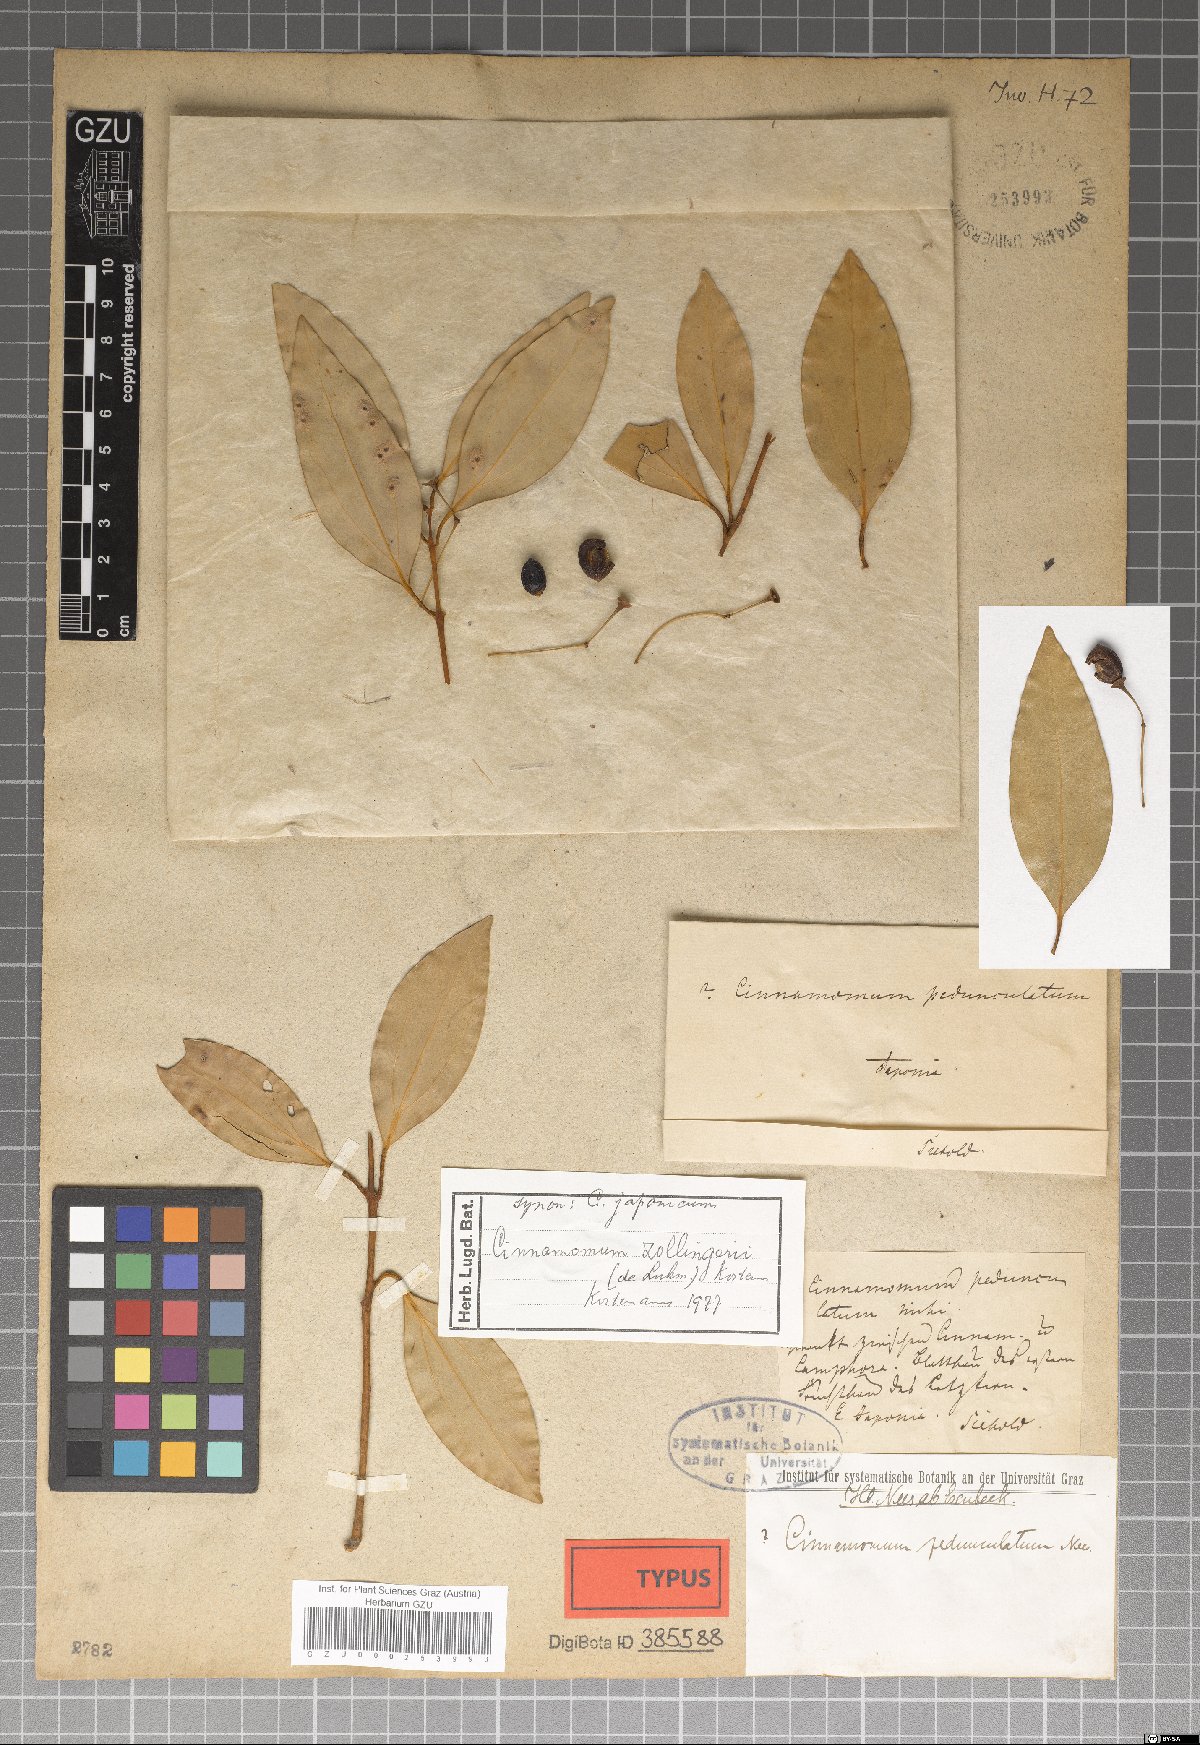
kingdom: Plantae
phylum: Tracheophyta
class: Magnoliopsida
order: Laurales
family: Lauraceae
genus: Cinnamomum
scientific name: Cinnamomum chekiangense
